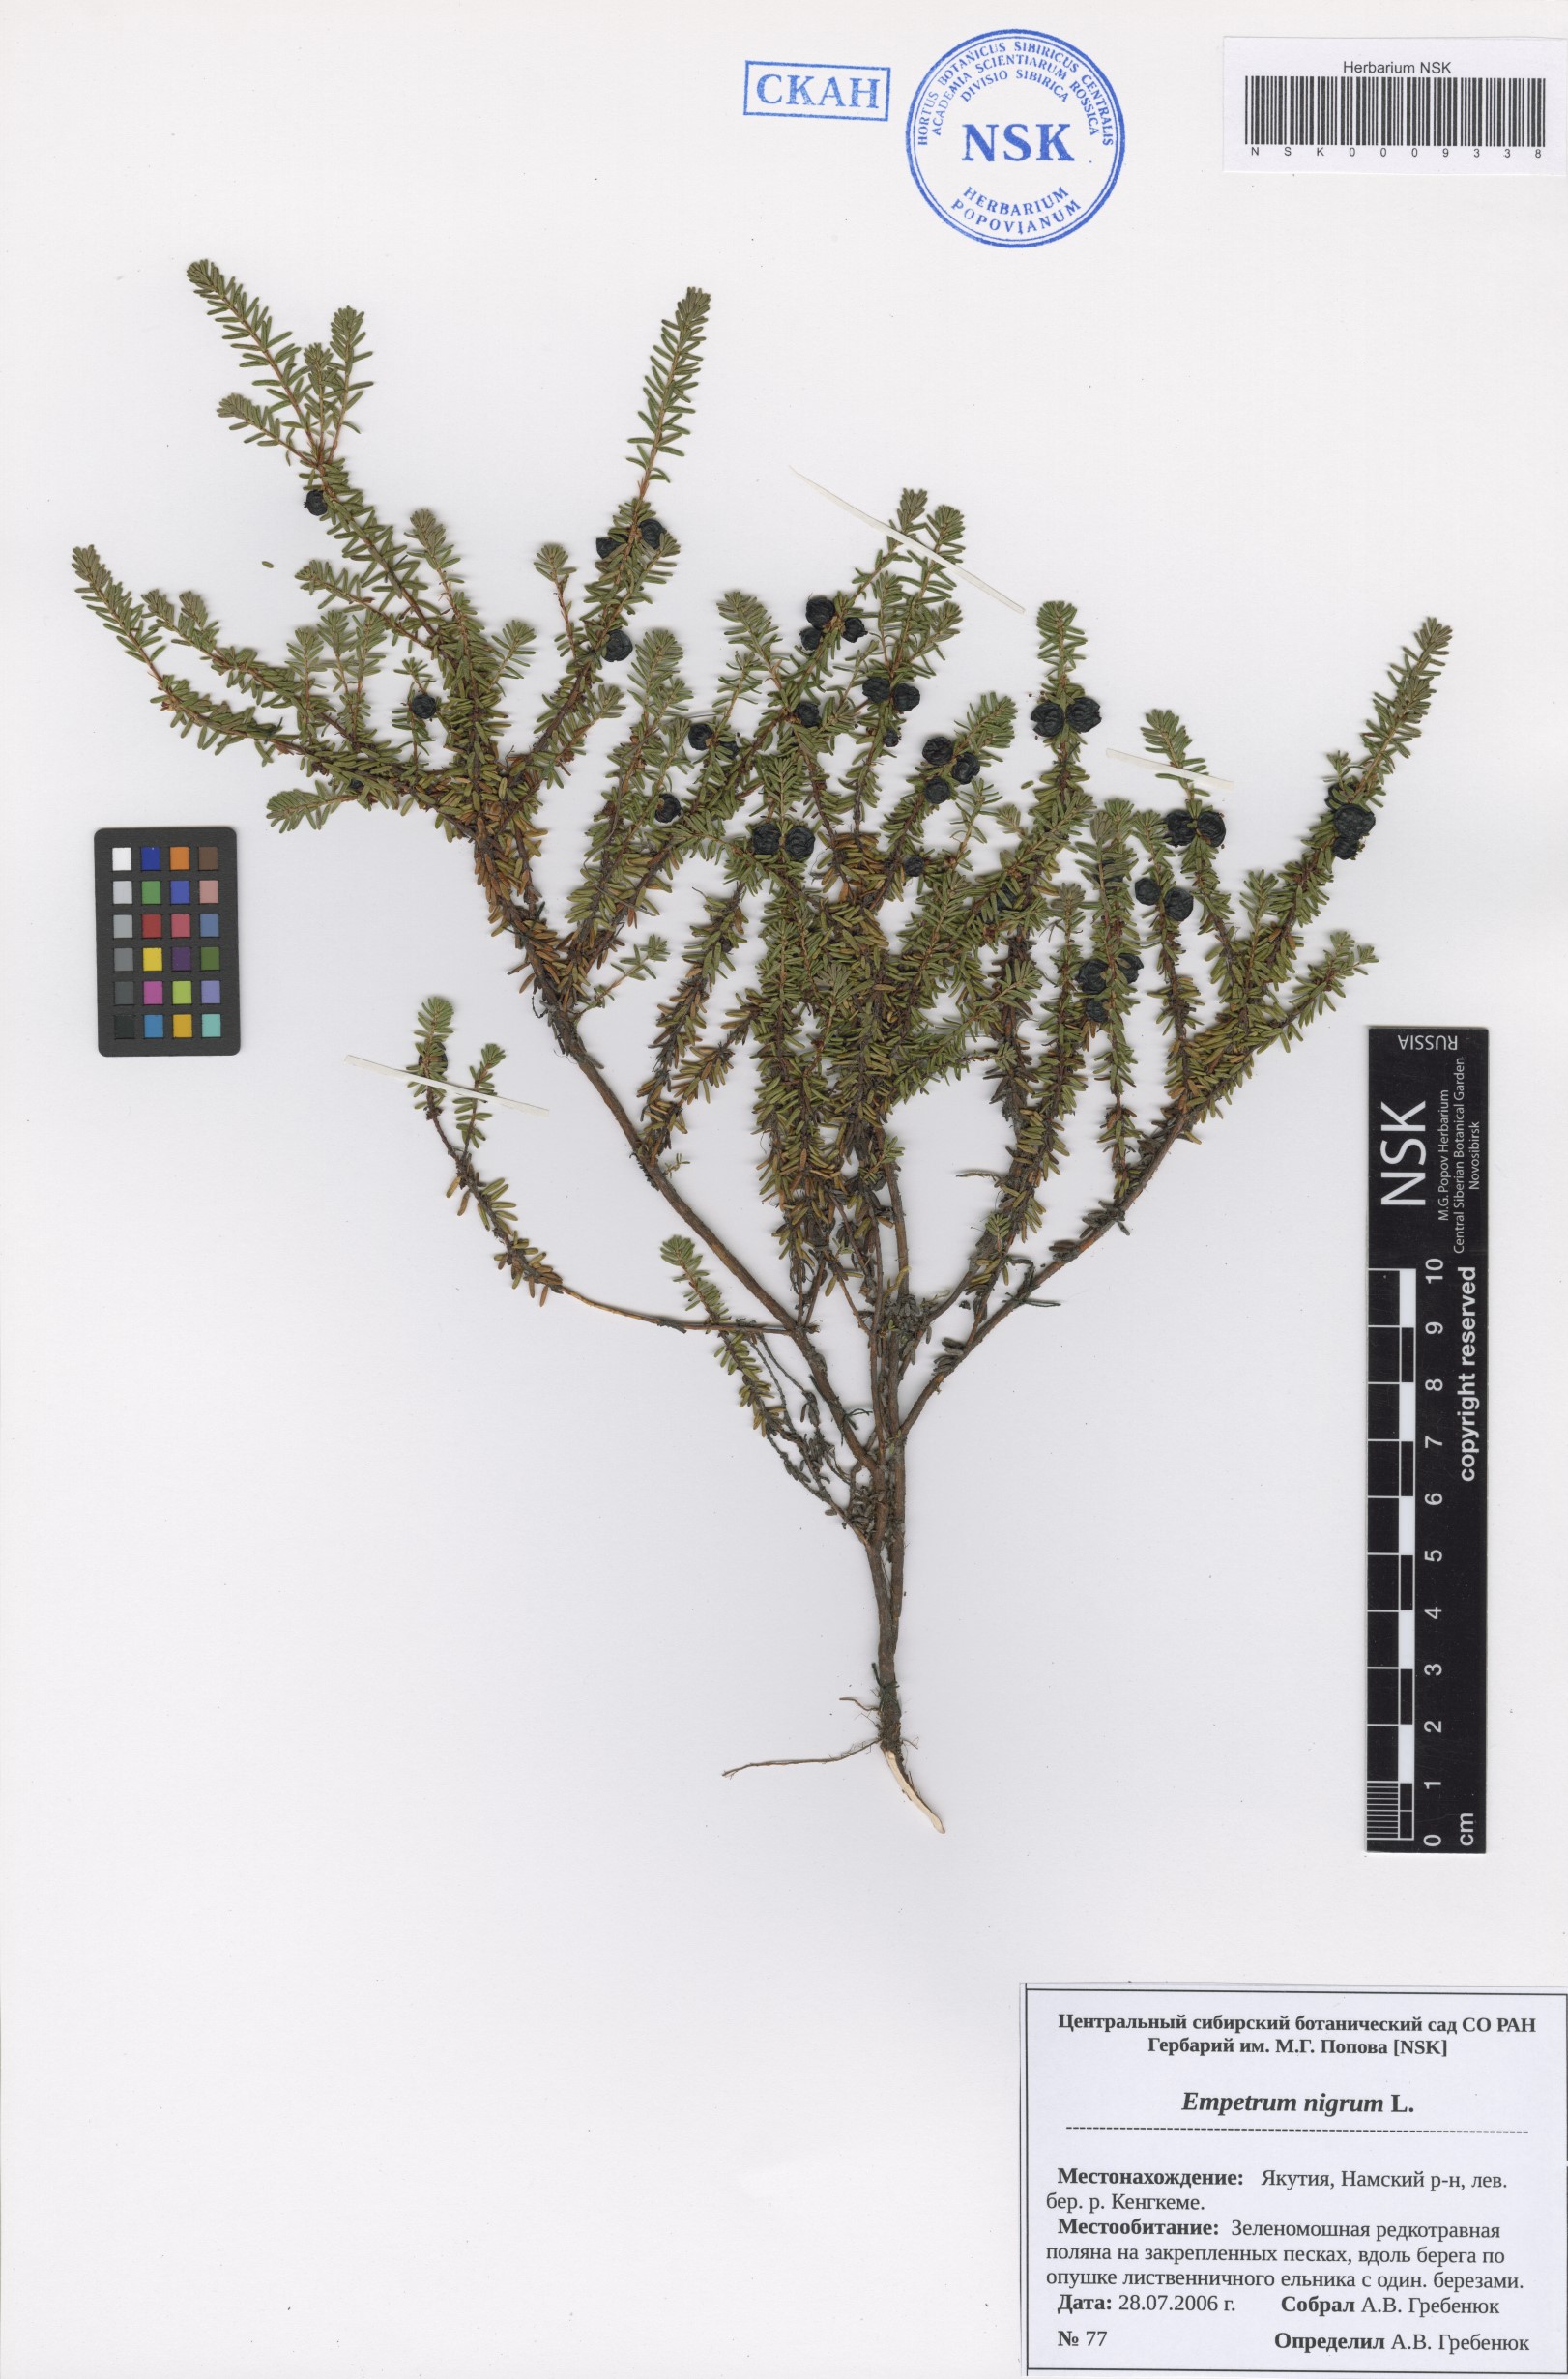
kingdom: Plantae
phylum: Tracheophyta
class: Magnoliopsida
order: Ericales
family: Ericaceae
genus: Empetrum
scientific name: Empetrum nigrum
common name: Black crowberry
